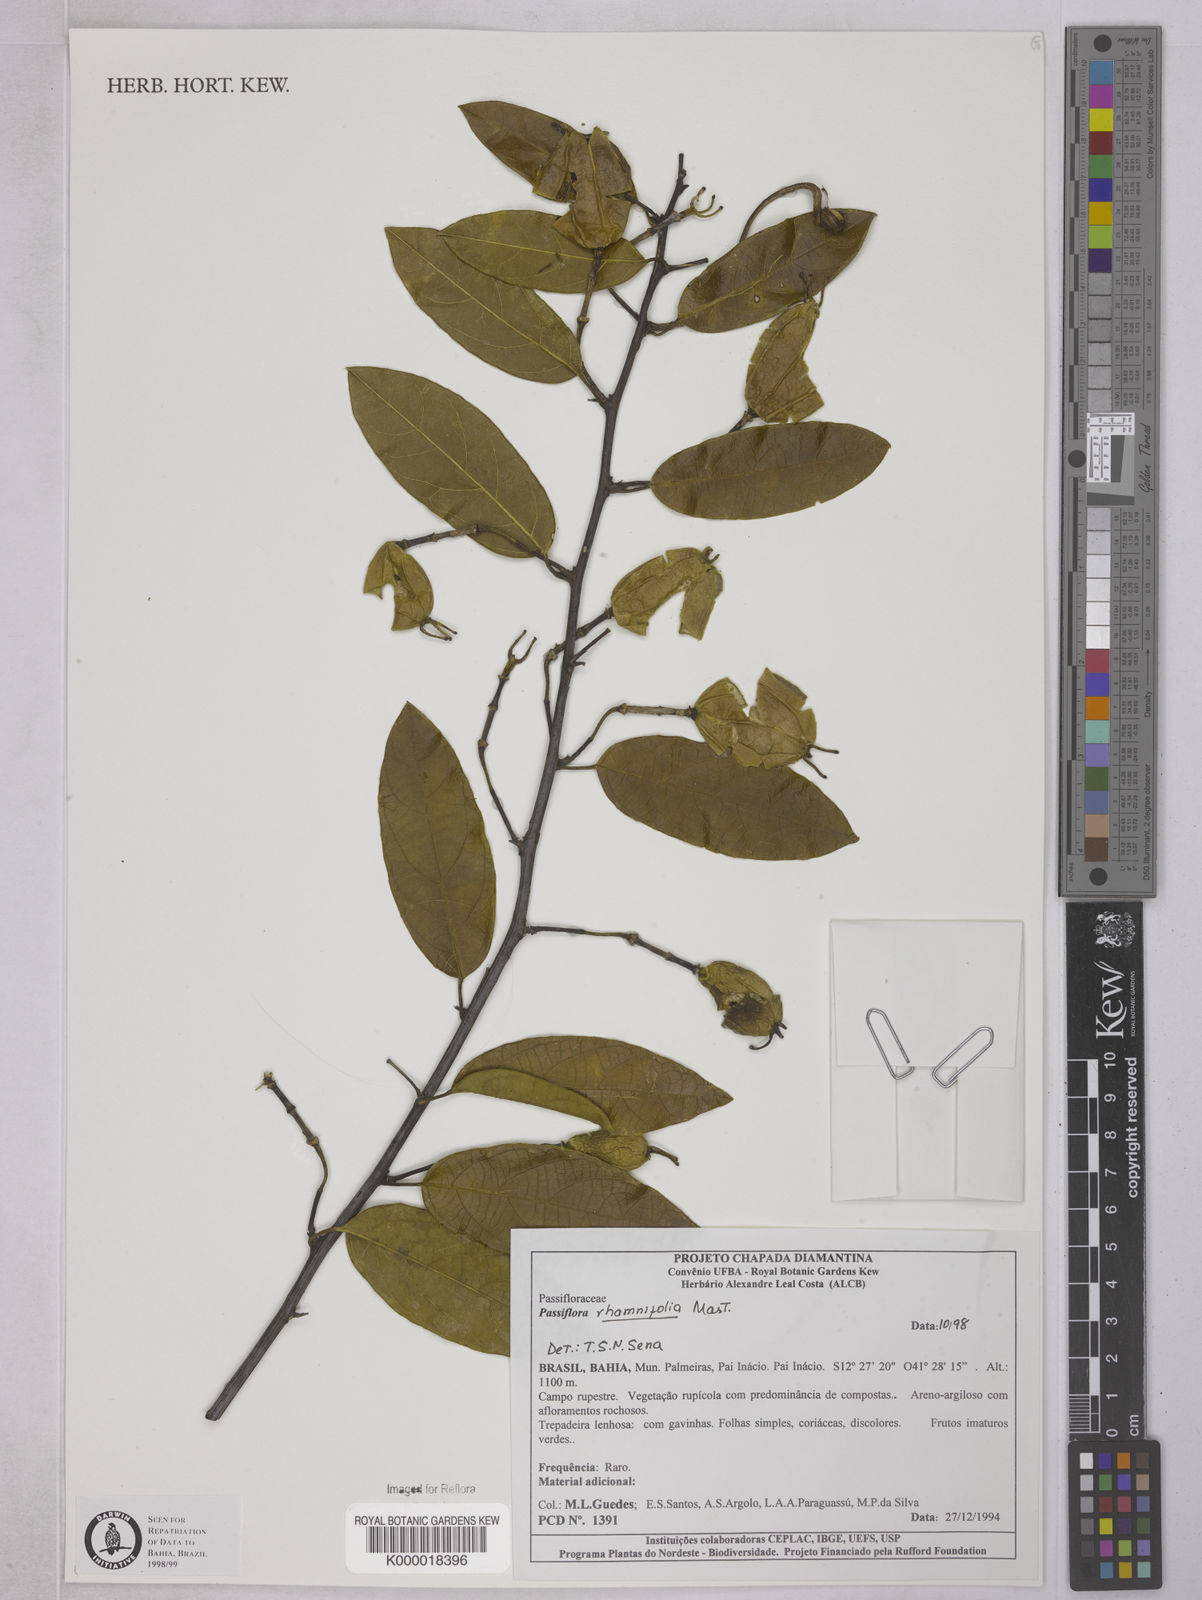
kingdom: Plantae
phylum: Tracheophyta
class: Magnoliopsida
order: Malpighiales
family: Passifloraceae
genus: Passiflora
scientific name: Passiflora rhamnifolia
